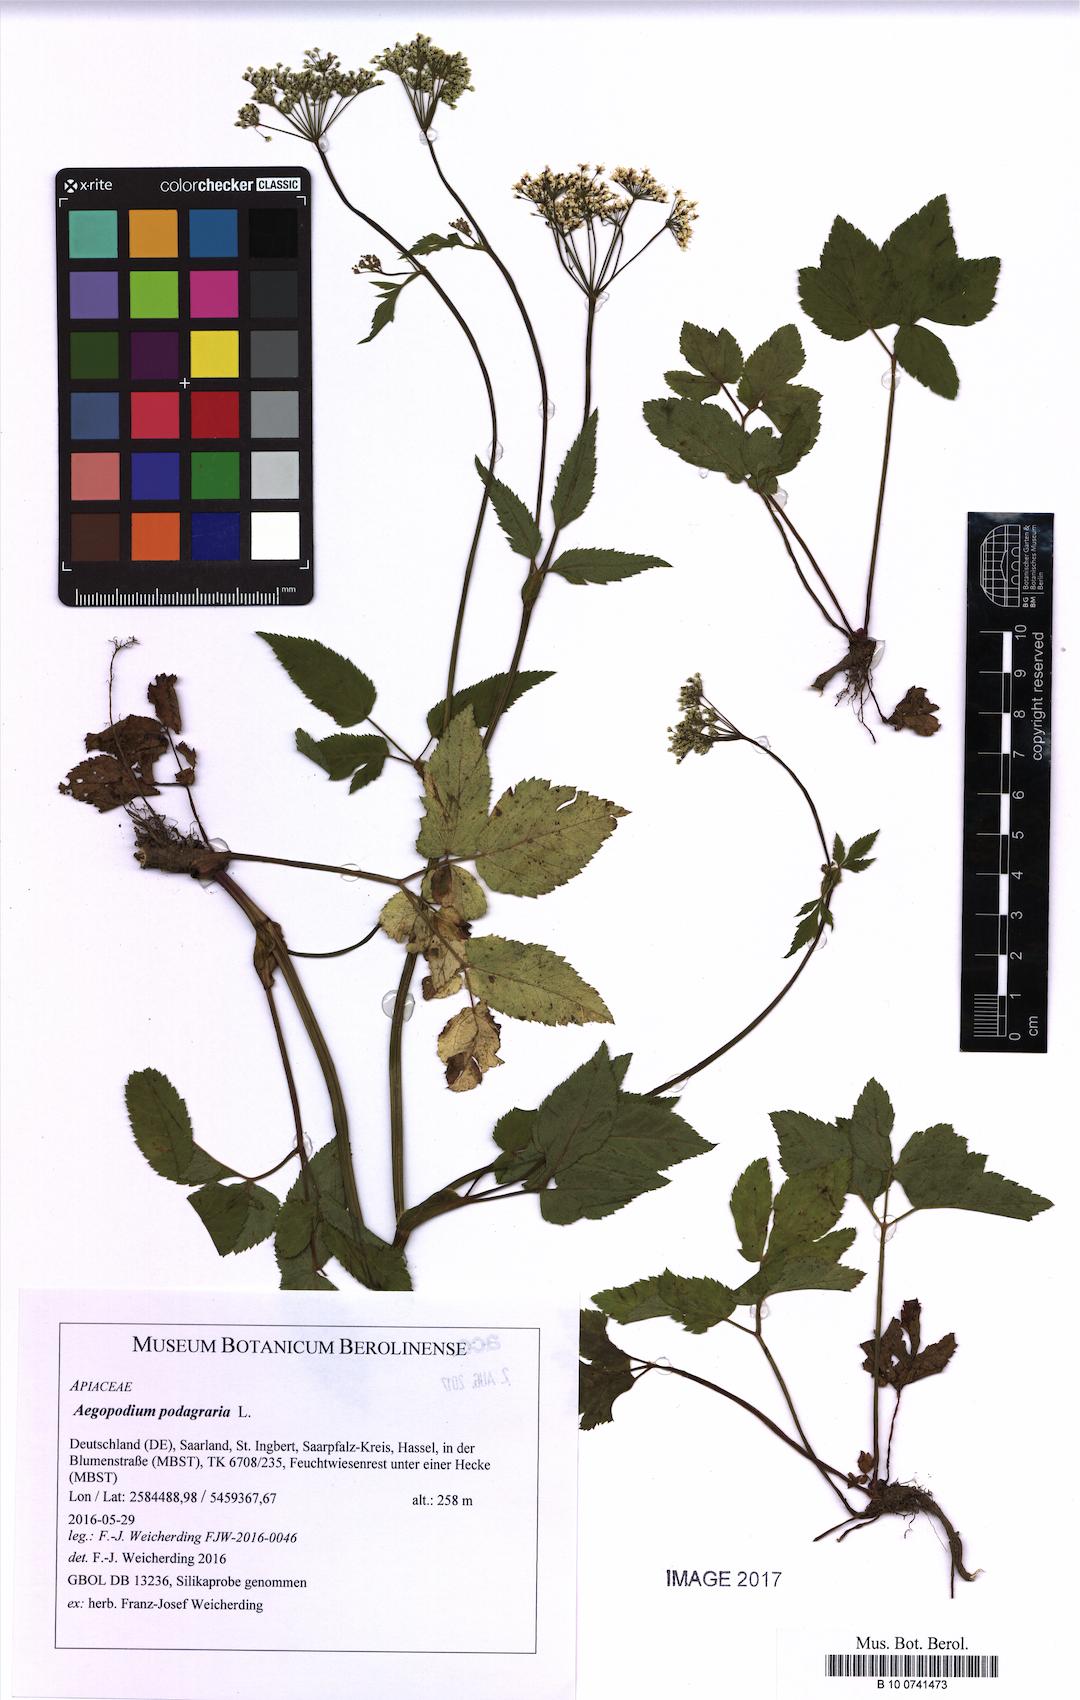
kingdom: Plantae
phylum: Tracheophyta
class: Magnoliopsida
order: Apiales
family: Apiaceae
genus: Aegopodium
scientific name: Aegopodium podagraria
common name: Ground-elder
